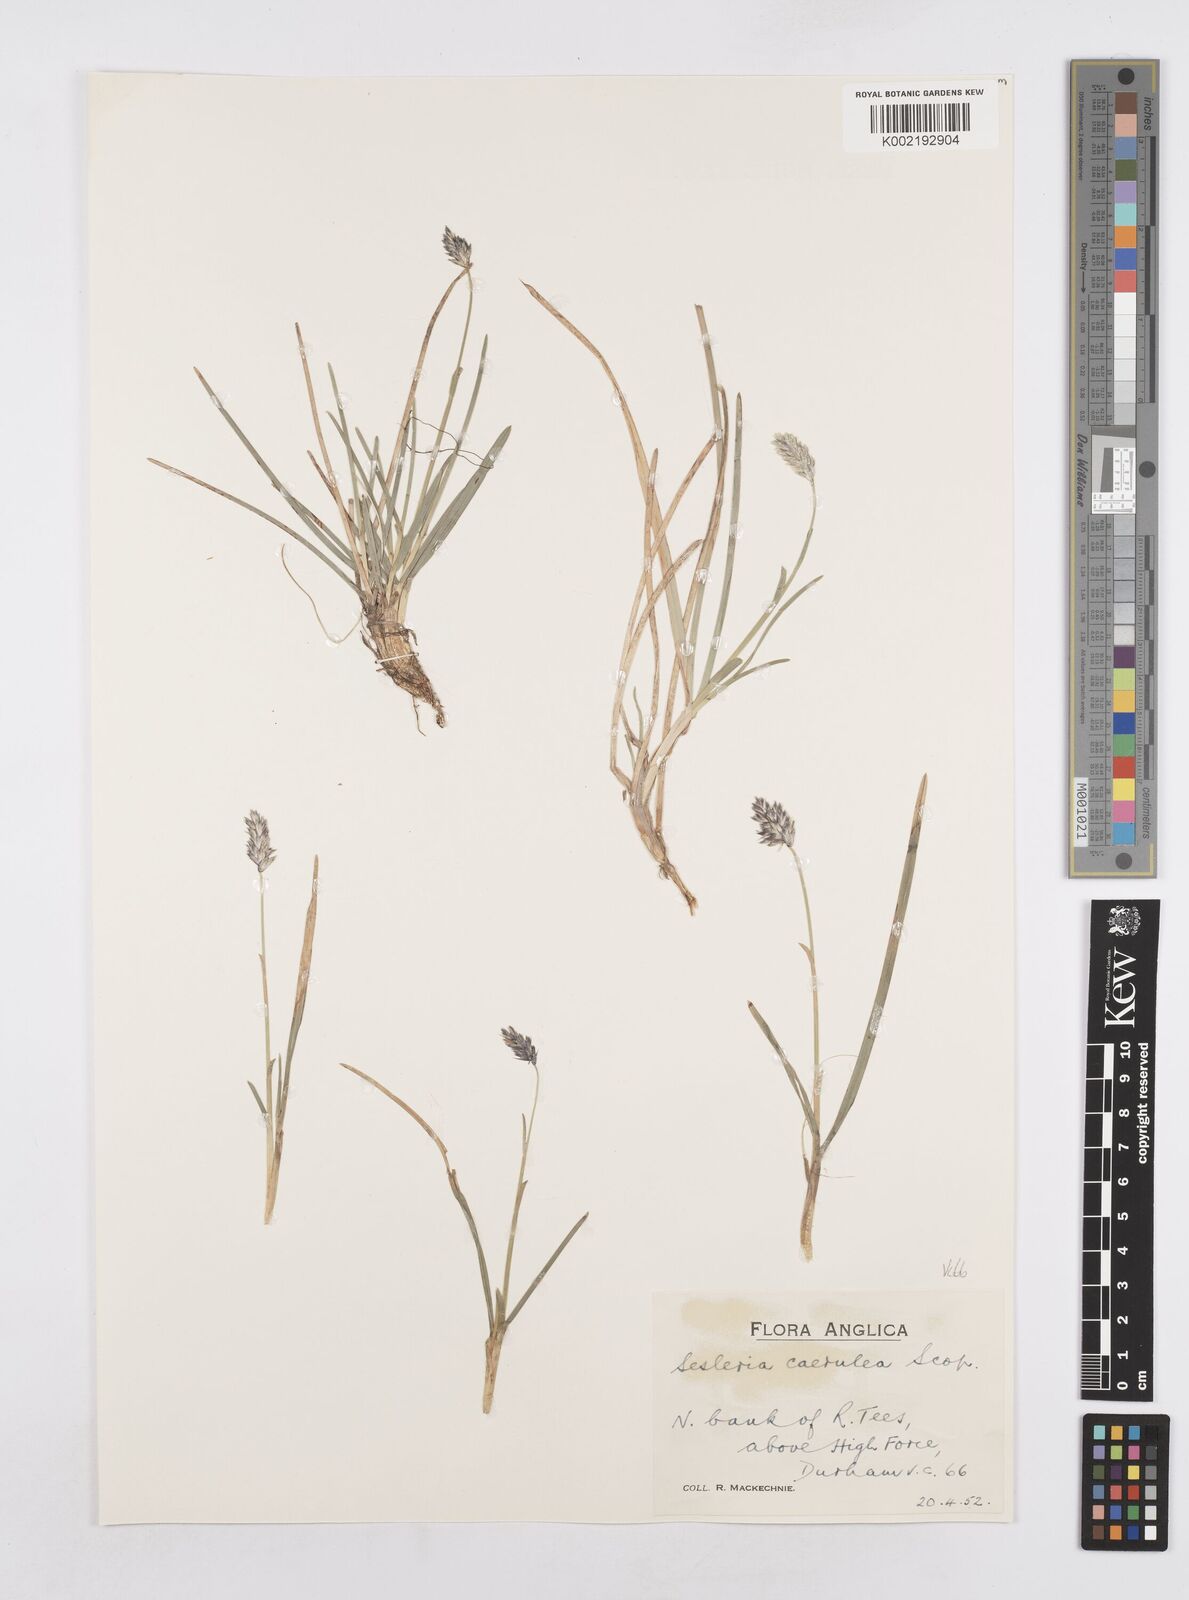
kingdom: Plantae
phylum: Tracheophyta
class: Liliopsida
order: Poales
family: Poaceae
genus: Sesleria
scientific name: Sesleria caerulea
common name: Blue moor-grass
